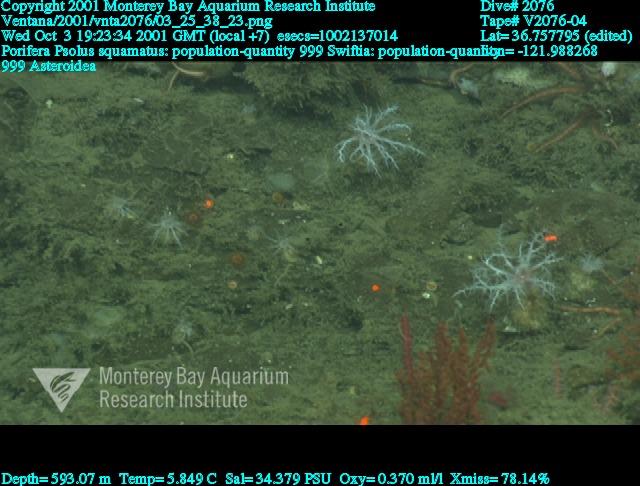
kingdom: Animalia
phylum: Porifera
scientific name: Porifera
